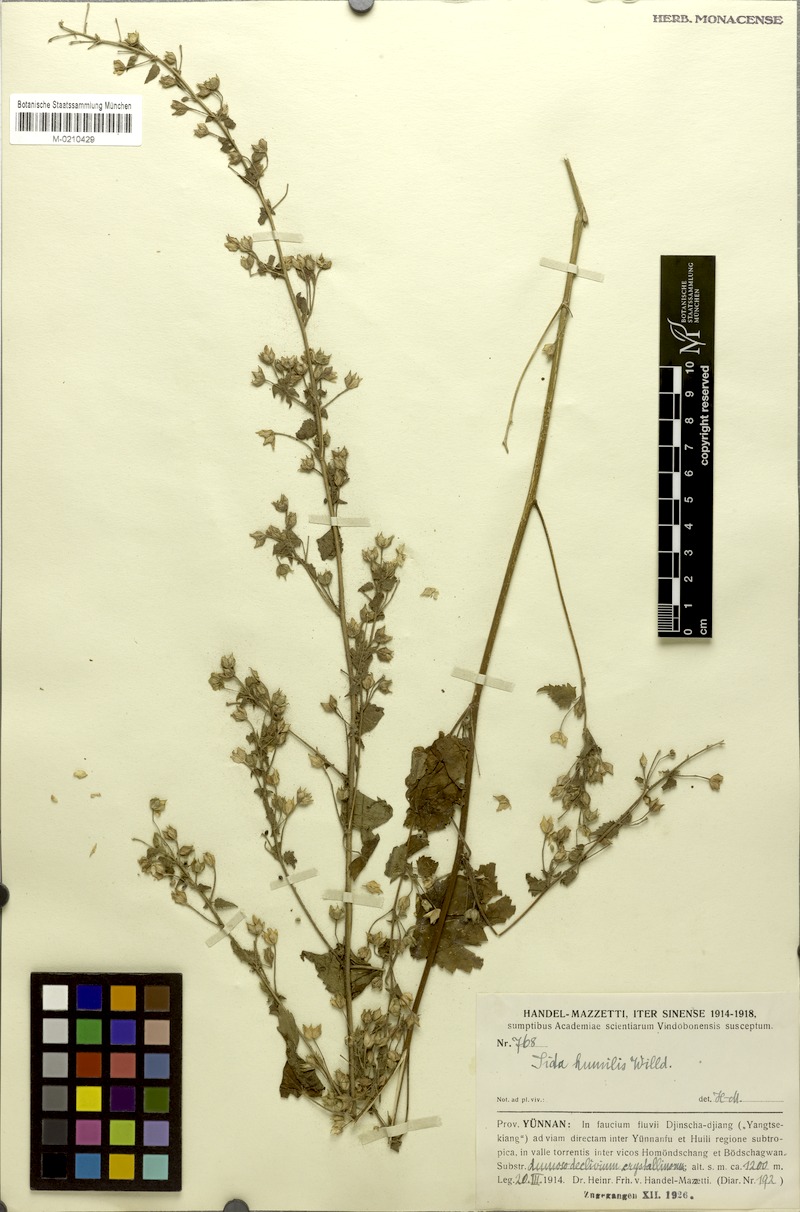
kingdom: Plantae
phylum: Tracheophyta
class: Magnoliopsida
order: Malvales
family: Malvaceae
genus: Sida
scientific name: Sida cordata
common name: Long-stalk sida
